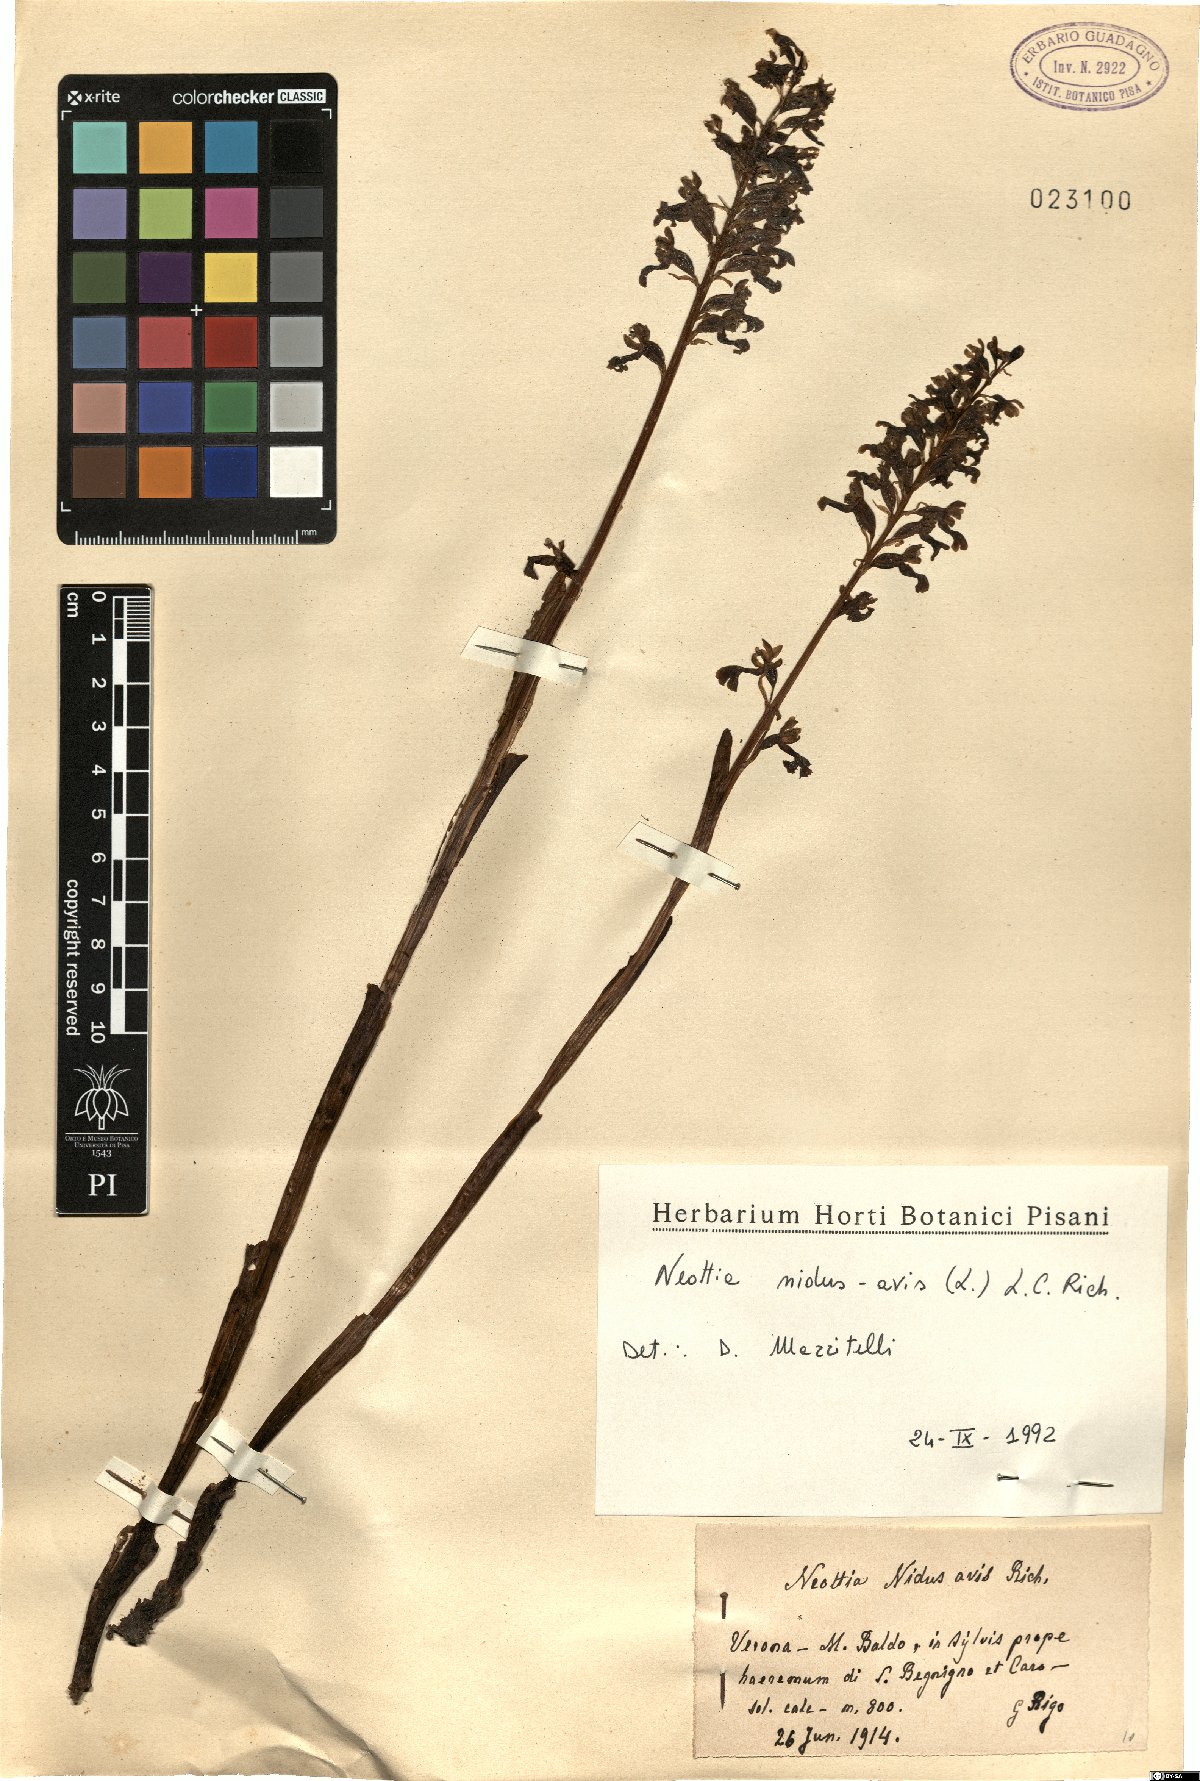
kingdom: Plantae
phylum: Tracheophyta
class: Liliopsida
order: Asparagales
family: Orchidaceae
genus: Neottia
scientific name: Neottia nidus-avis
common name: Bird's-nest orchid
